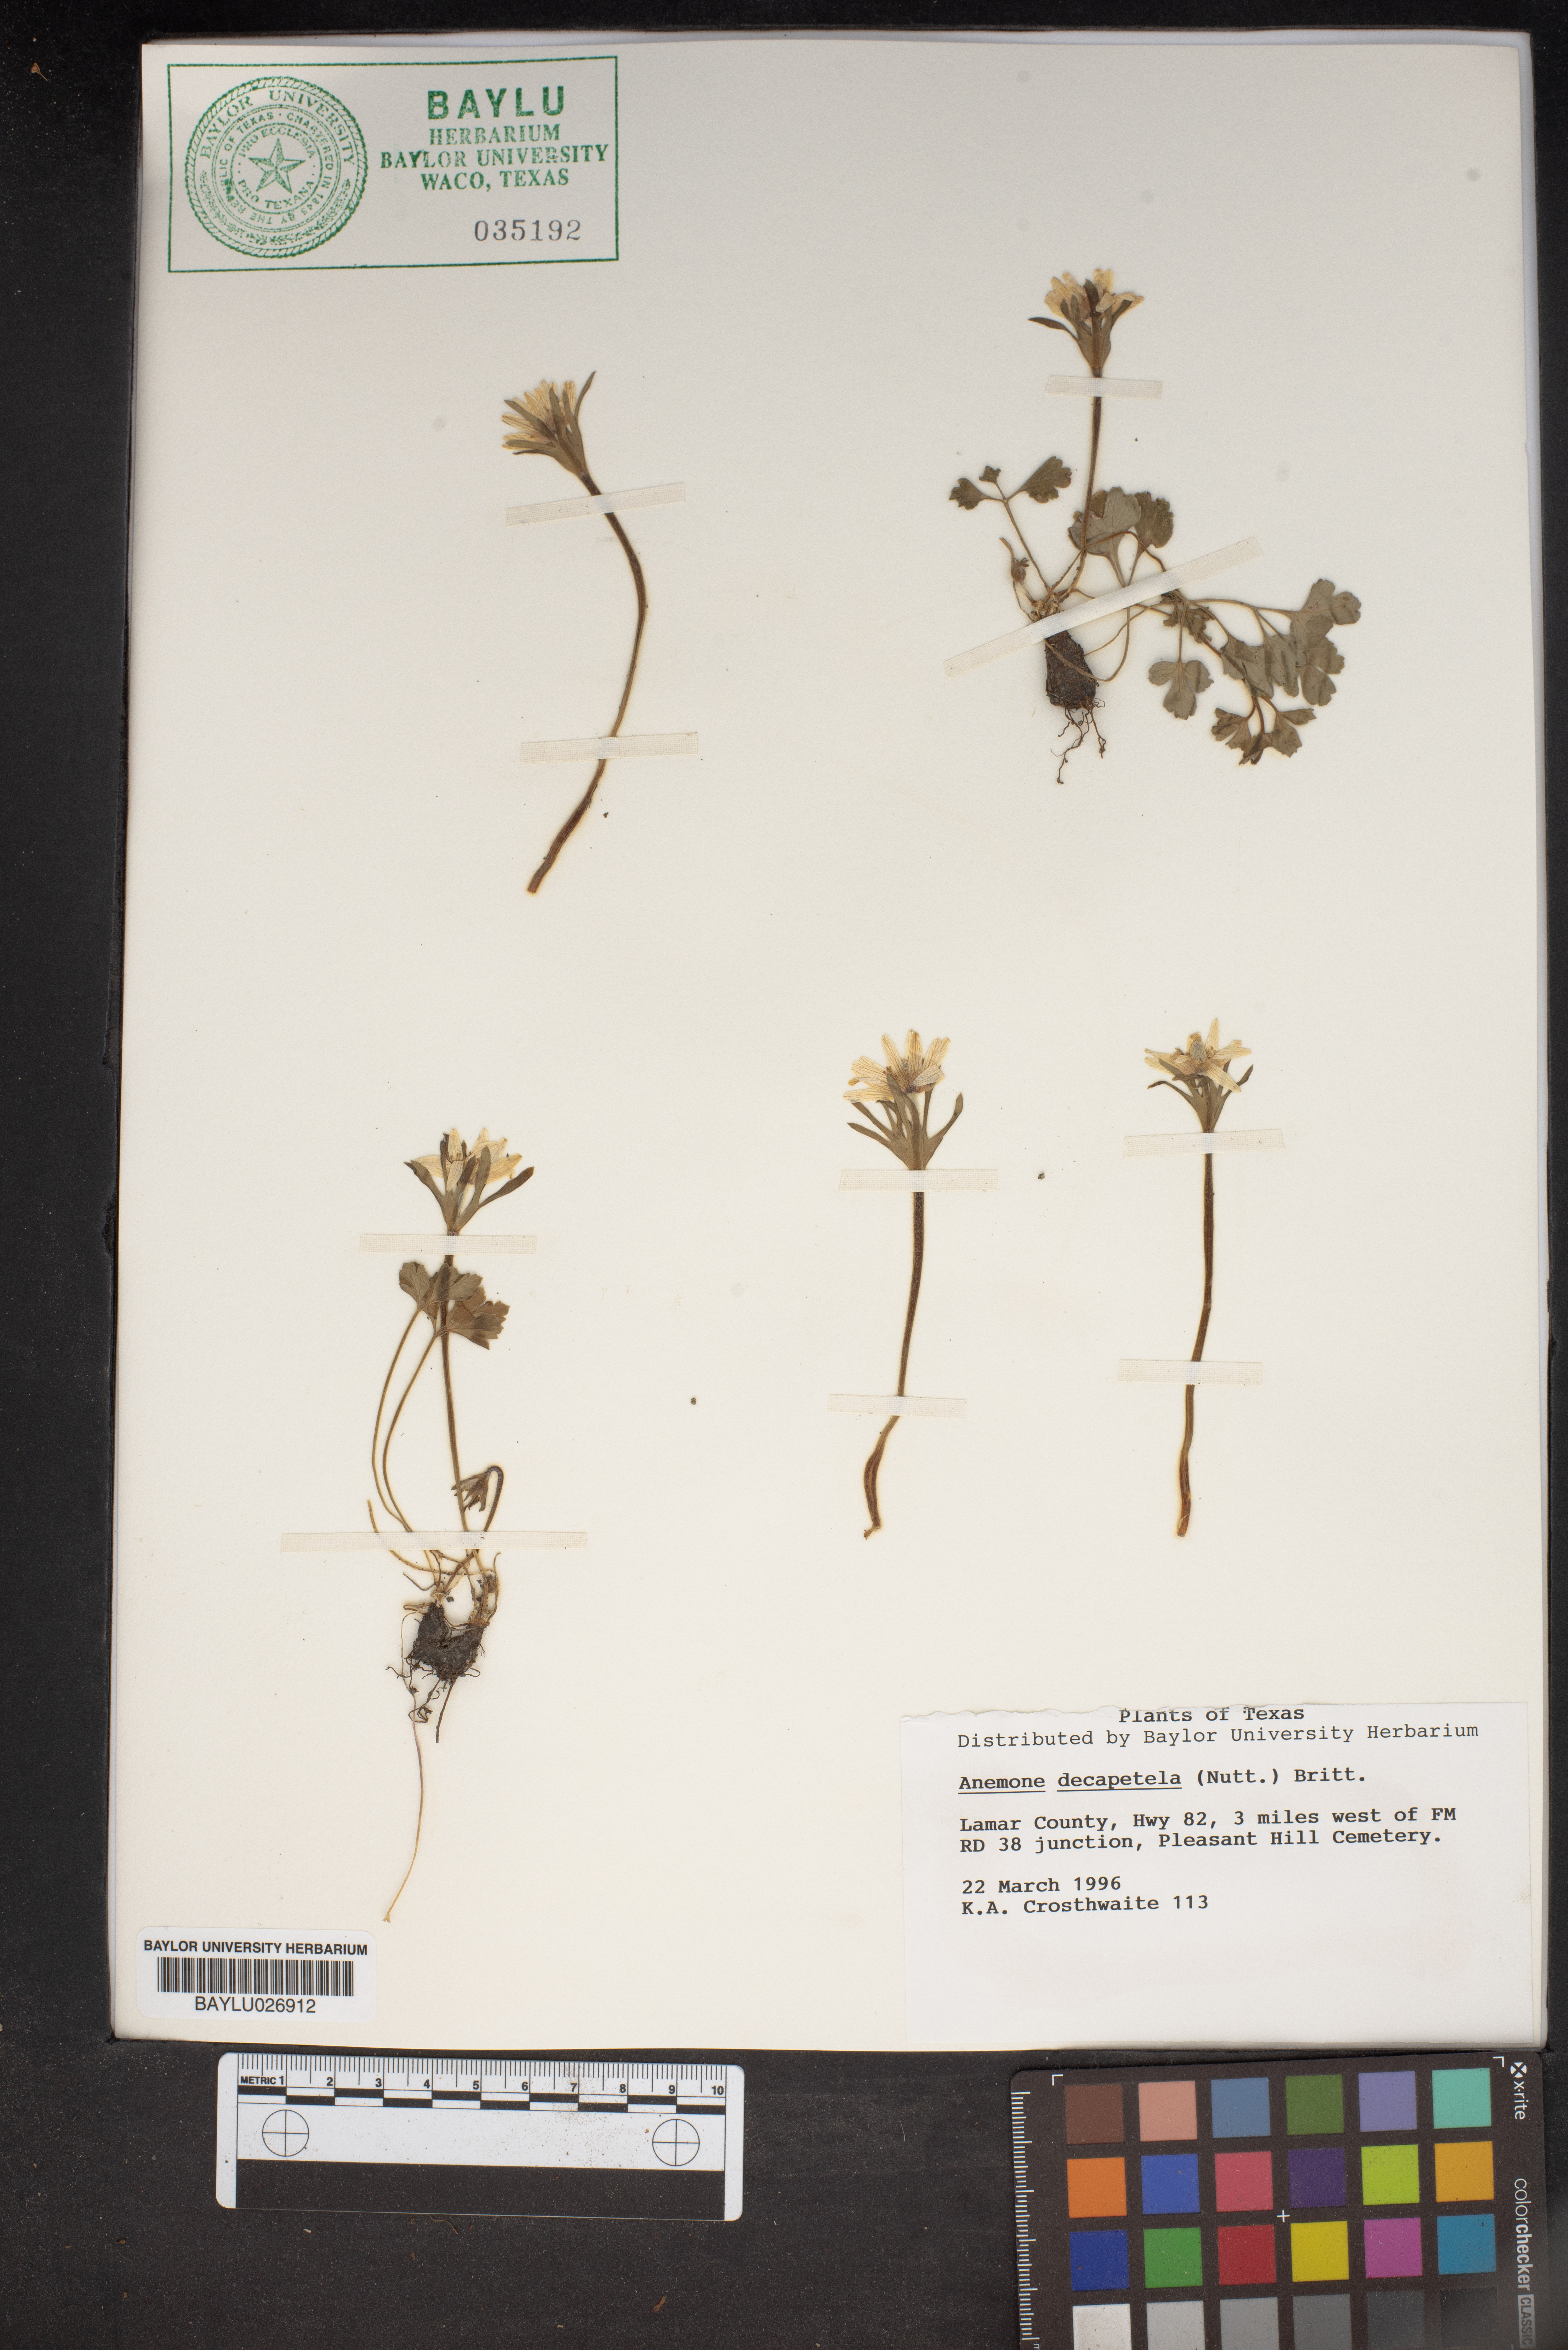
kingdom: Plantae
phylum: Tracheophyta
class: Magnoliopsida
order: Ranunculales
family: Ranunculaceae
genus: Anemone
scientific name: Anemone decapetala
